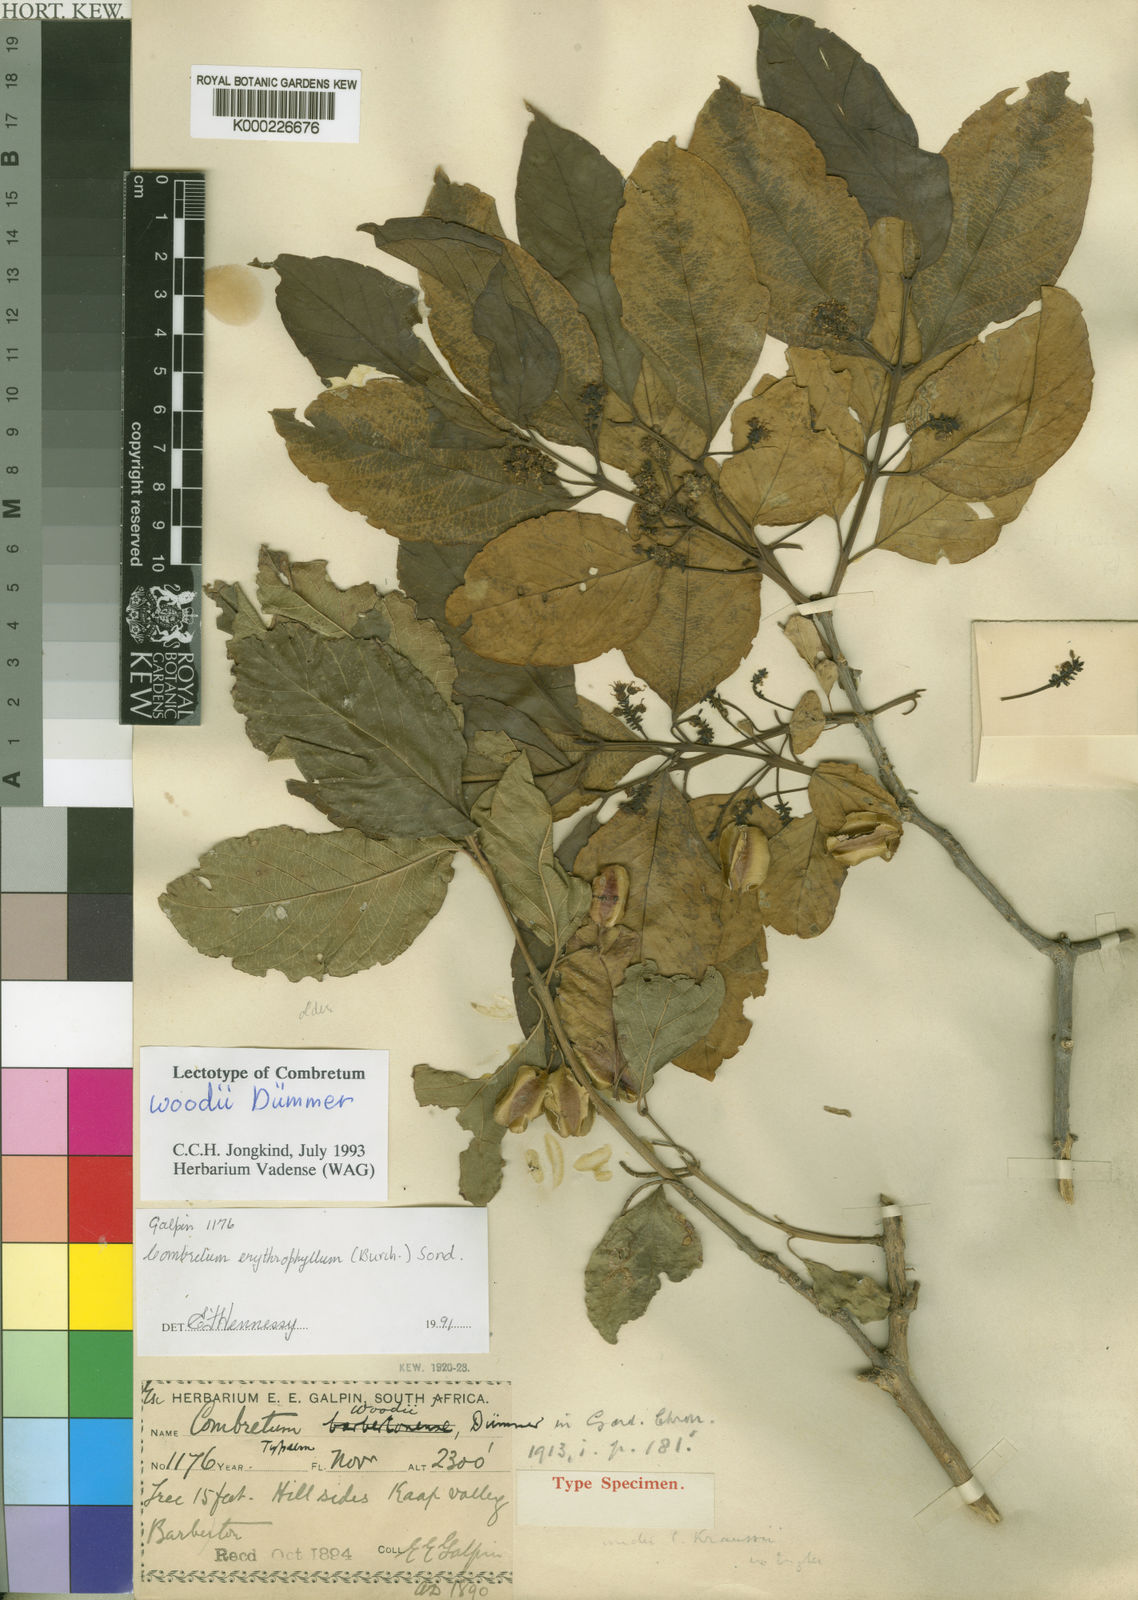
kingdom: Plantae
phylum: Tracheophyta
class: Magnoliopsida
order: Myrtales
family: Combretaceae
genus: Combretum
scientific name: Combretum woodii
